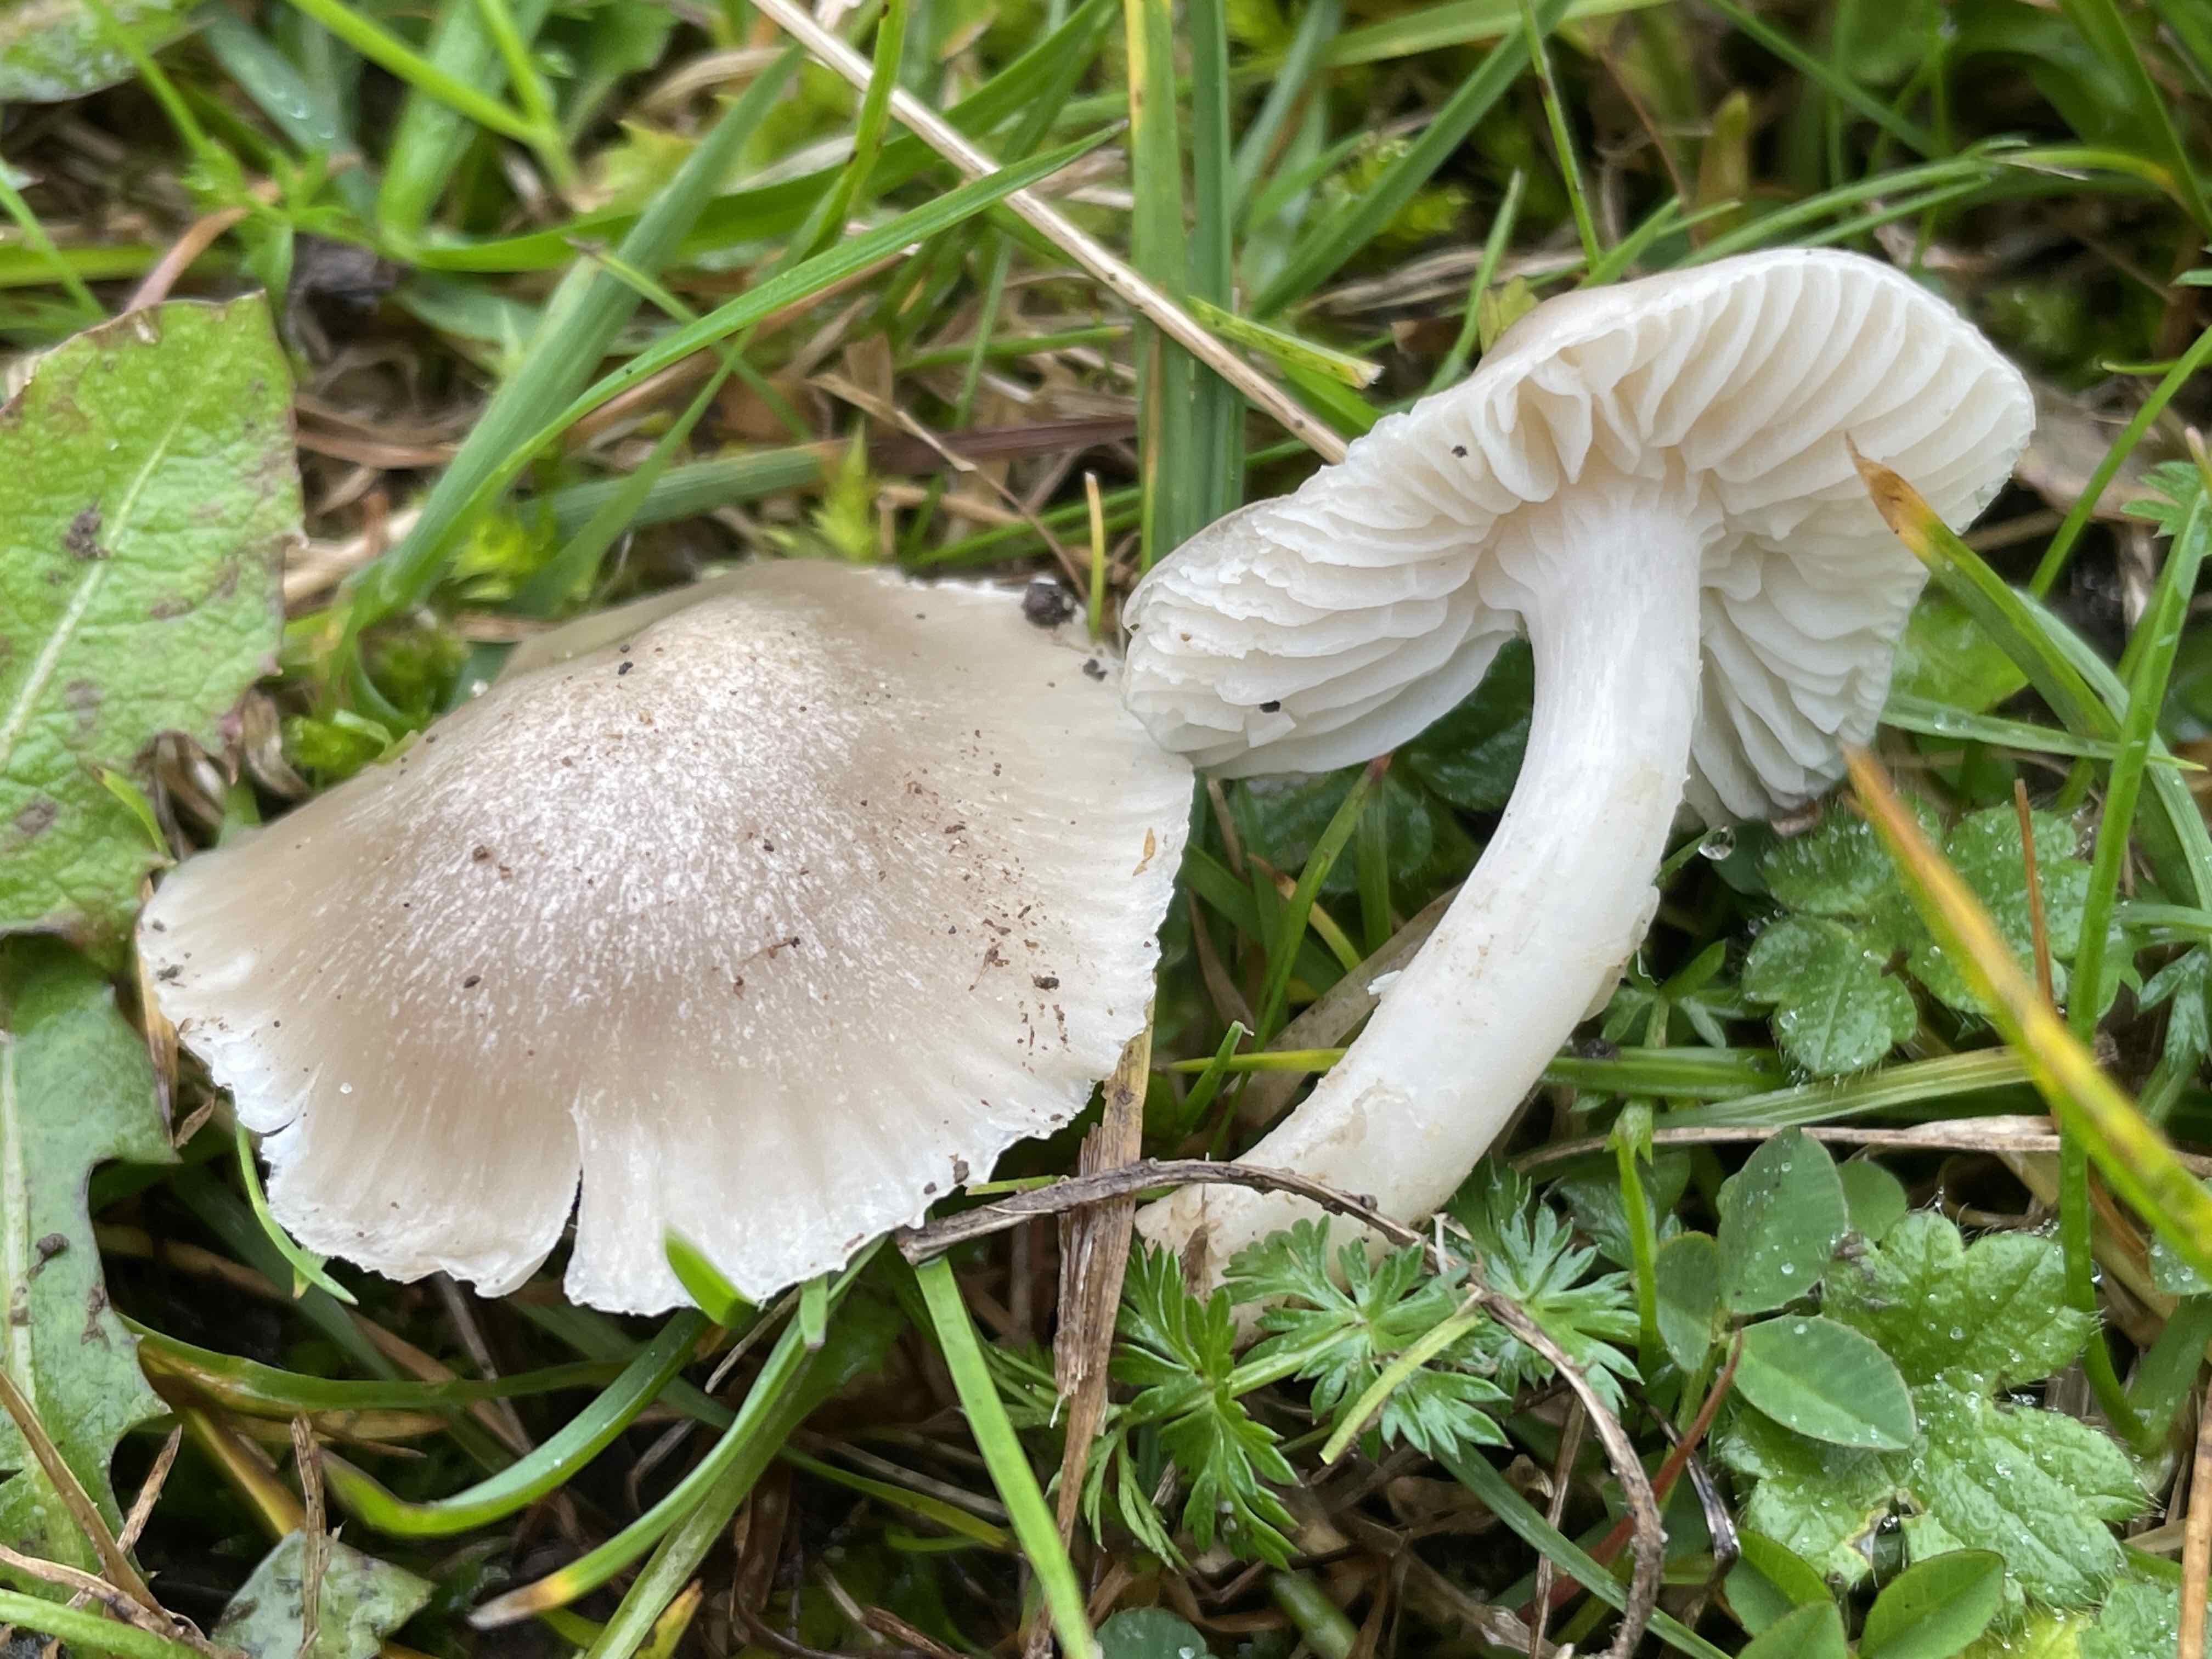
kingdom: Fungi
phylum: Basidiomycota
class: Agaricomycetes
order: Agaricales
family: Hygrophoraceae
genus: Cuphophyllus
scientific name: Cuphophyllus fornicatus
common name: gråbrun vokshat
